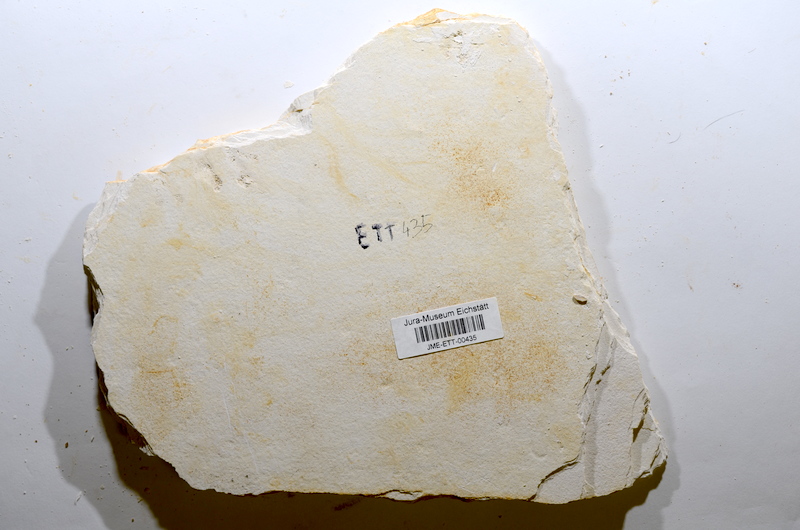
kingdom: Animalia
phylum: Chordata
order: Salmoniformes
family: Orthogonikleithridae
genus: Orthogonikleithrus
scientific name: Orthogonikleithrus hoelli
